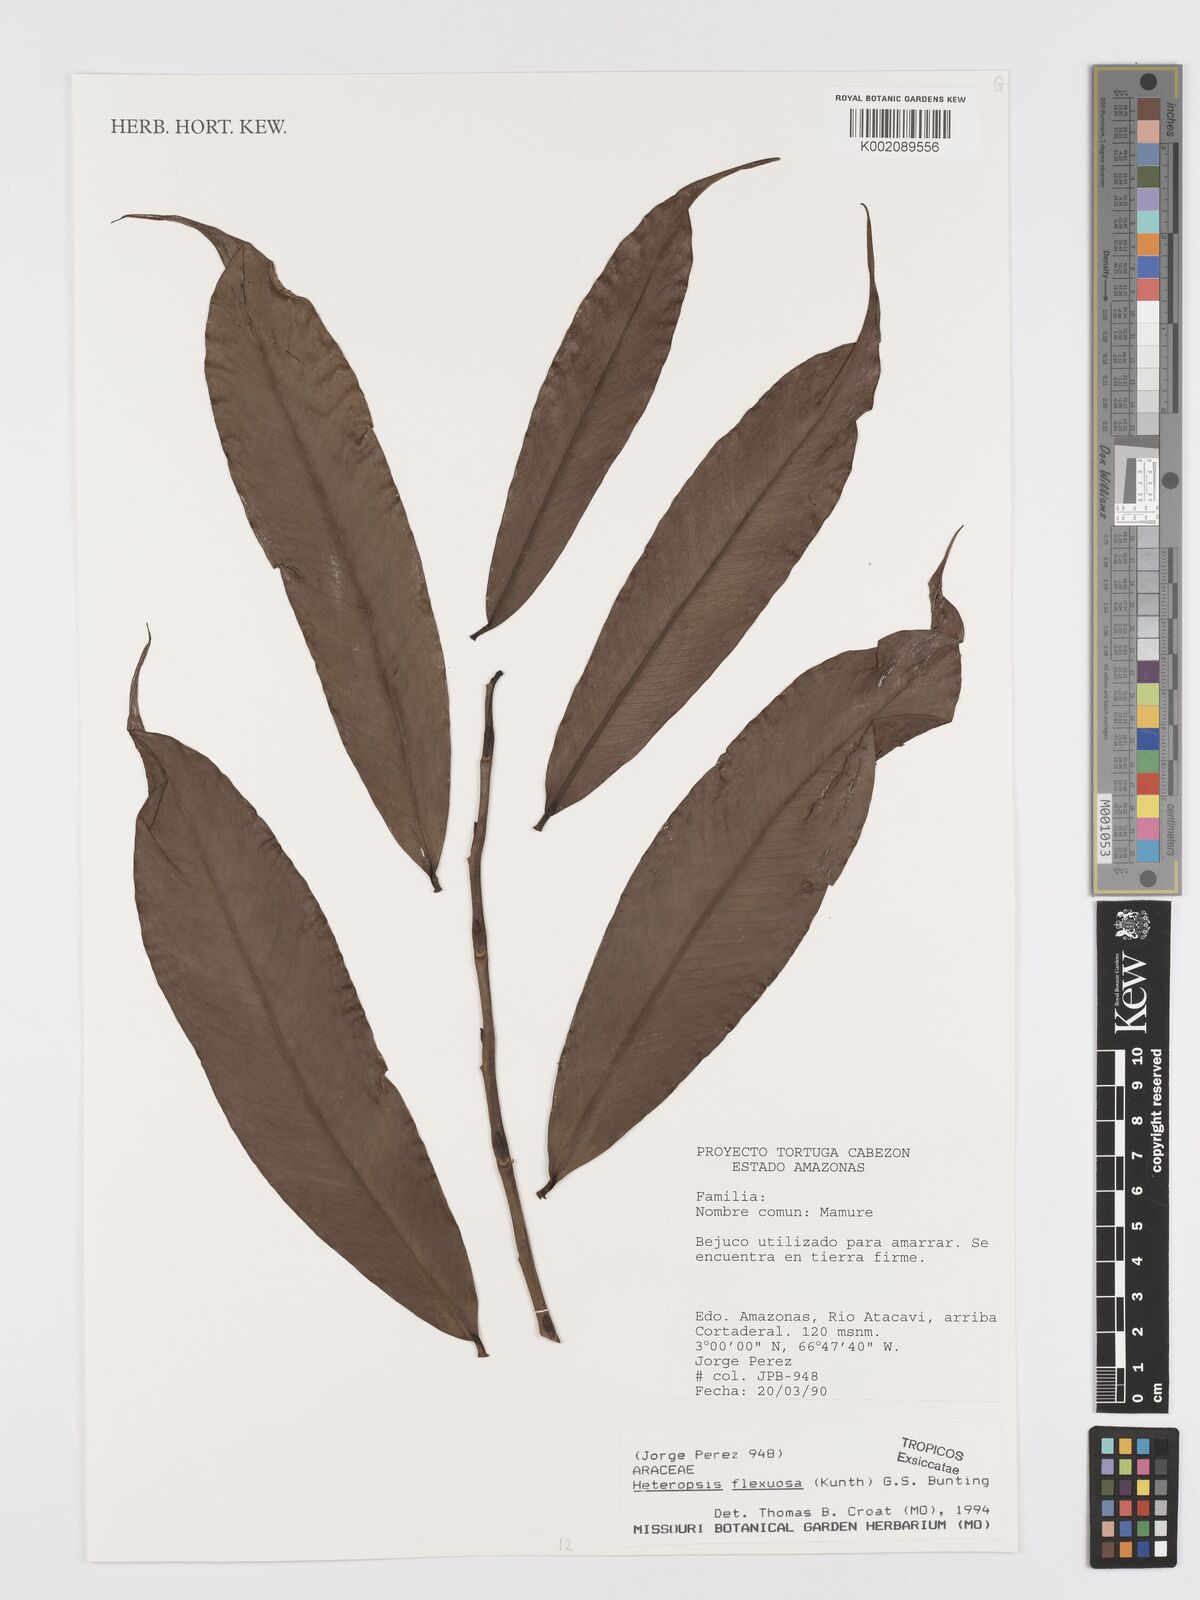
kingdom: Plantae
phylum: Tracheophyta
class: Liliopsida
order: Alismatales
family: Araceae
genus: Heteropsis
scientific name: Heteropsis flexuosa
